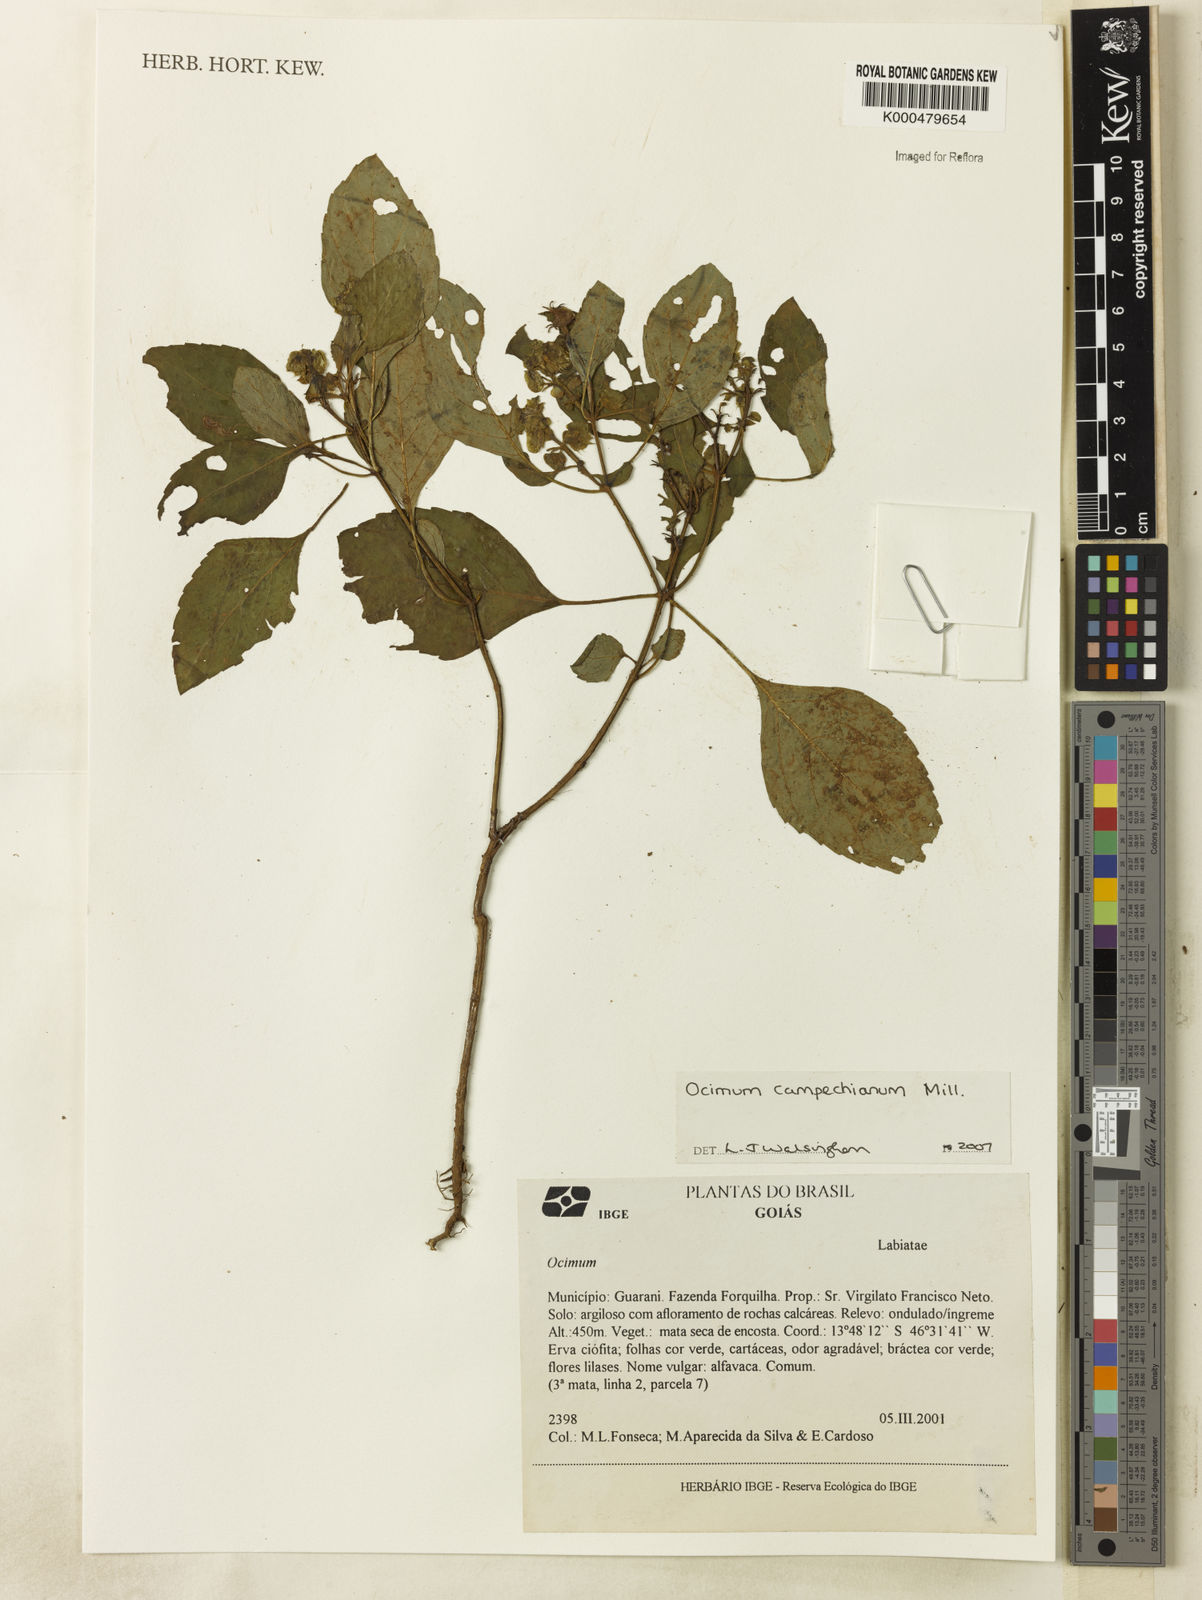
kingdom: Plantae
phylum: Tracheophyta
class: Magnoliopsida
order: Lamiales
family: Lamiaceae
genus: Ocimum
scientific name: Ocimum campechianum
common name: Mosquito basil
